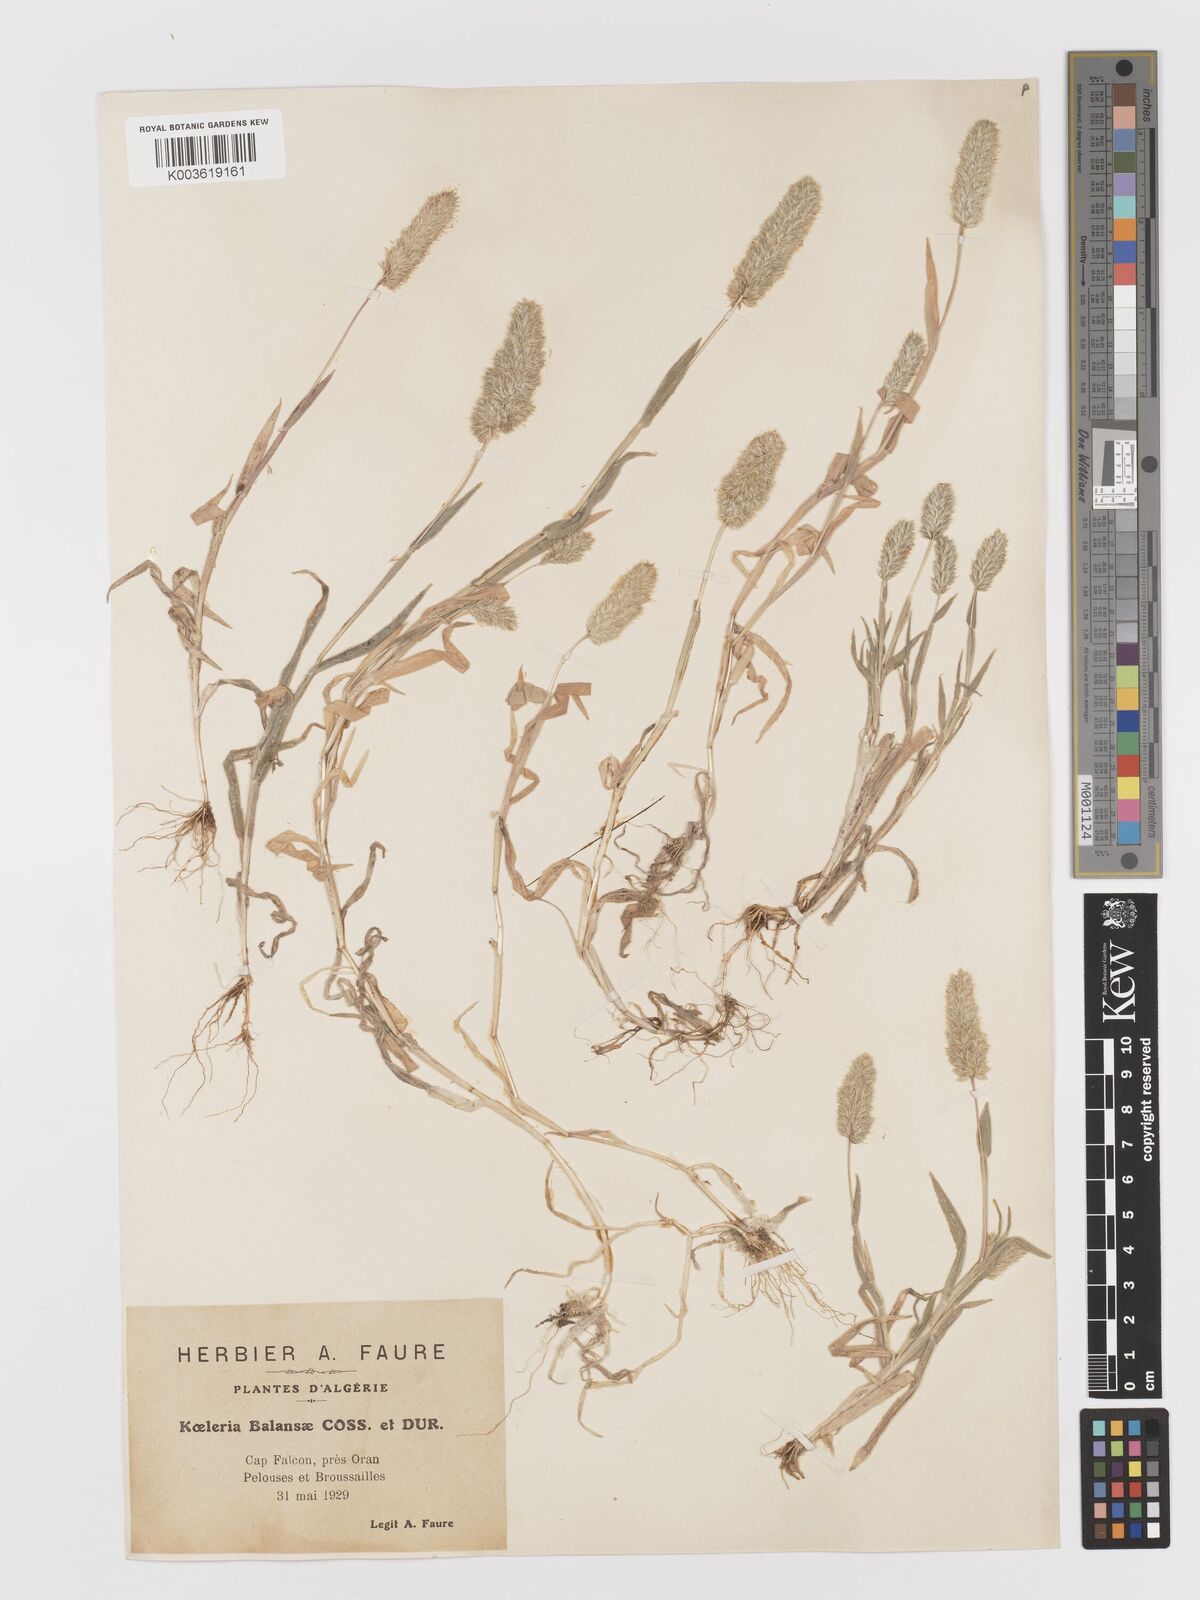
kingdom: Plantae
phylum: Tracheophyta
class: Liliopsida
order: Poales
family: Poaceae
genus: Rostraria
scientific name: Rostraria balansae
